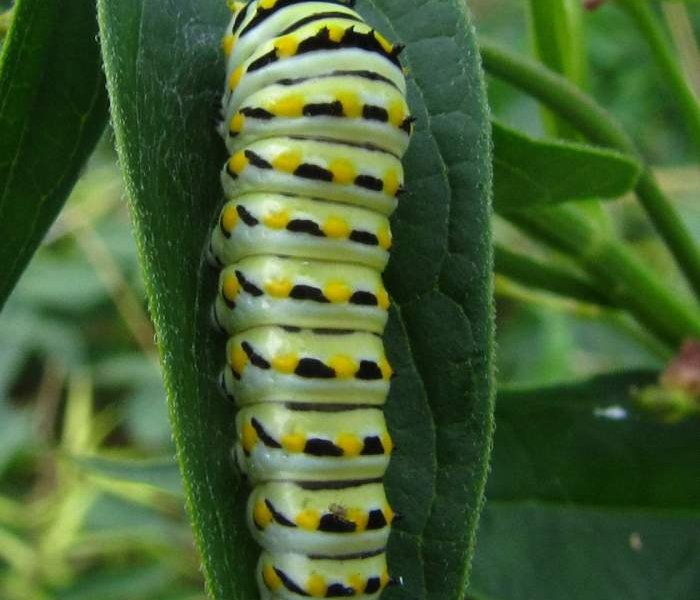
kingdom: Animalia
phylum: Arthropoda
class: Insecta
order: Lepidoptera
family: Papilionidae
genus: Papilio
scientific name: Papilio polyxenes
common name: Black Swallowtail
